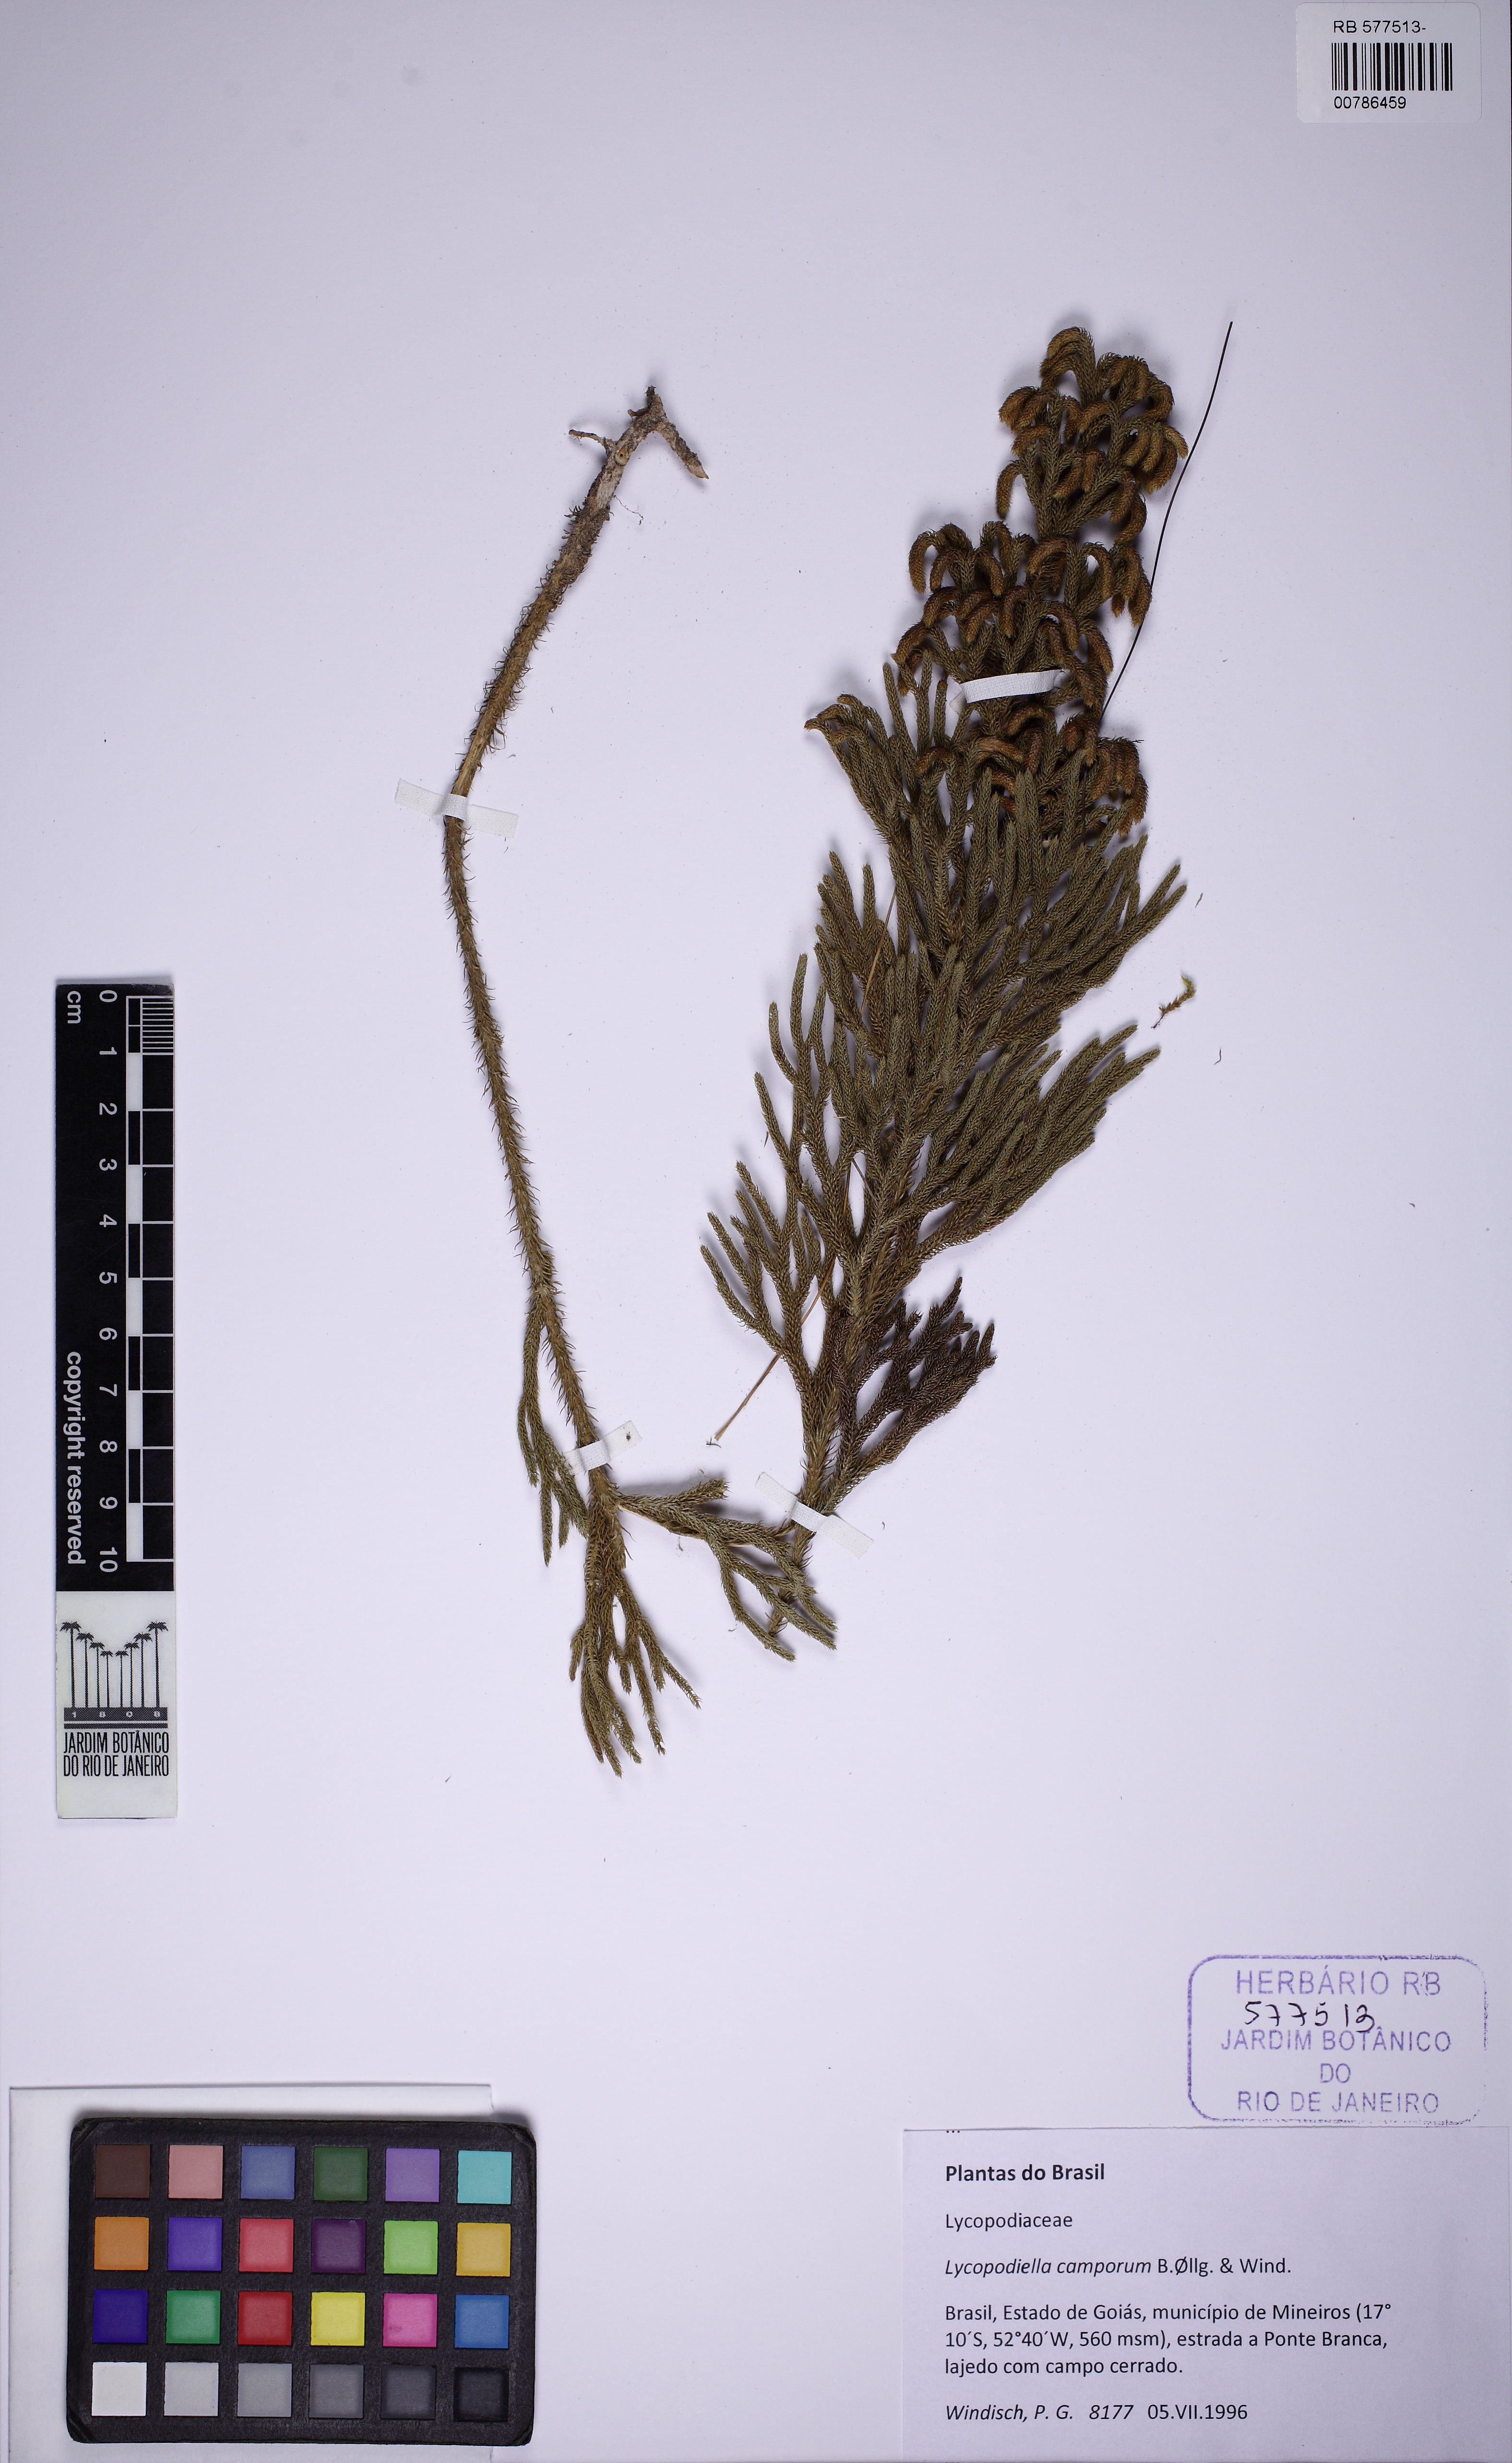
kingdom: Plantae
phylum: Tracheophyta
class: Lycopodiopsida
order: Lycopodiales
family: Lycopodiaceae
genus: Palhinhaea
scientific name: Palhinhaea camporum
